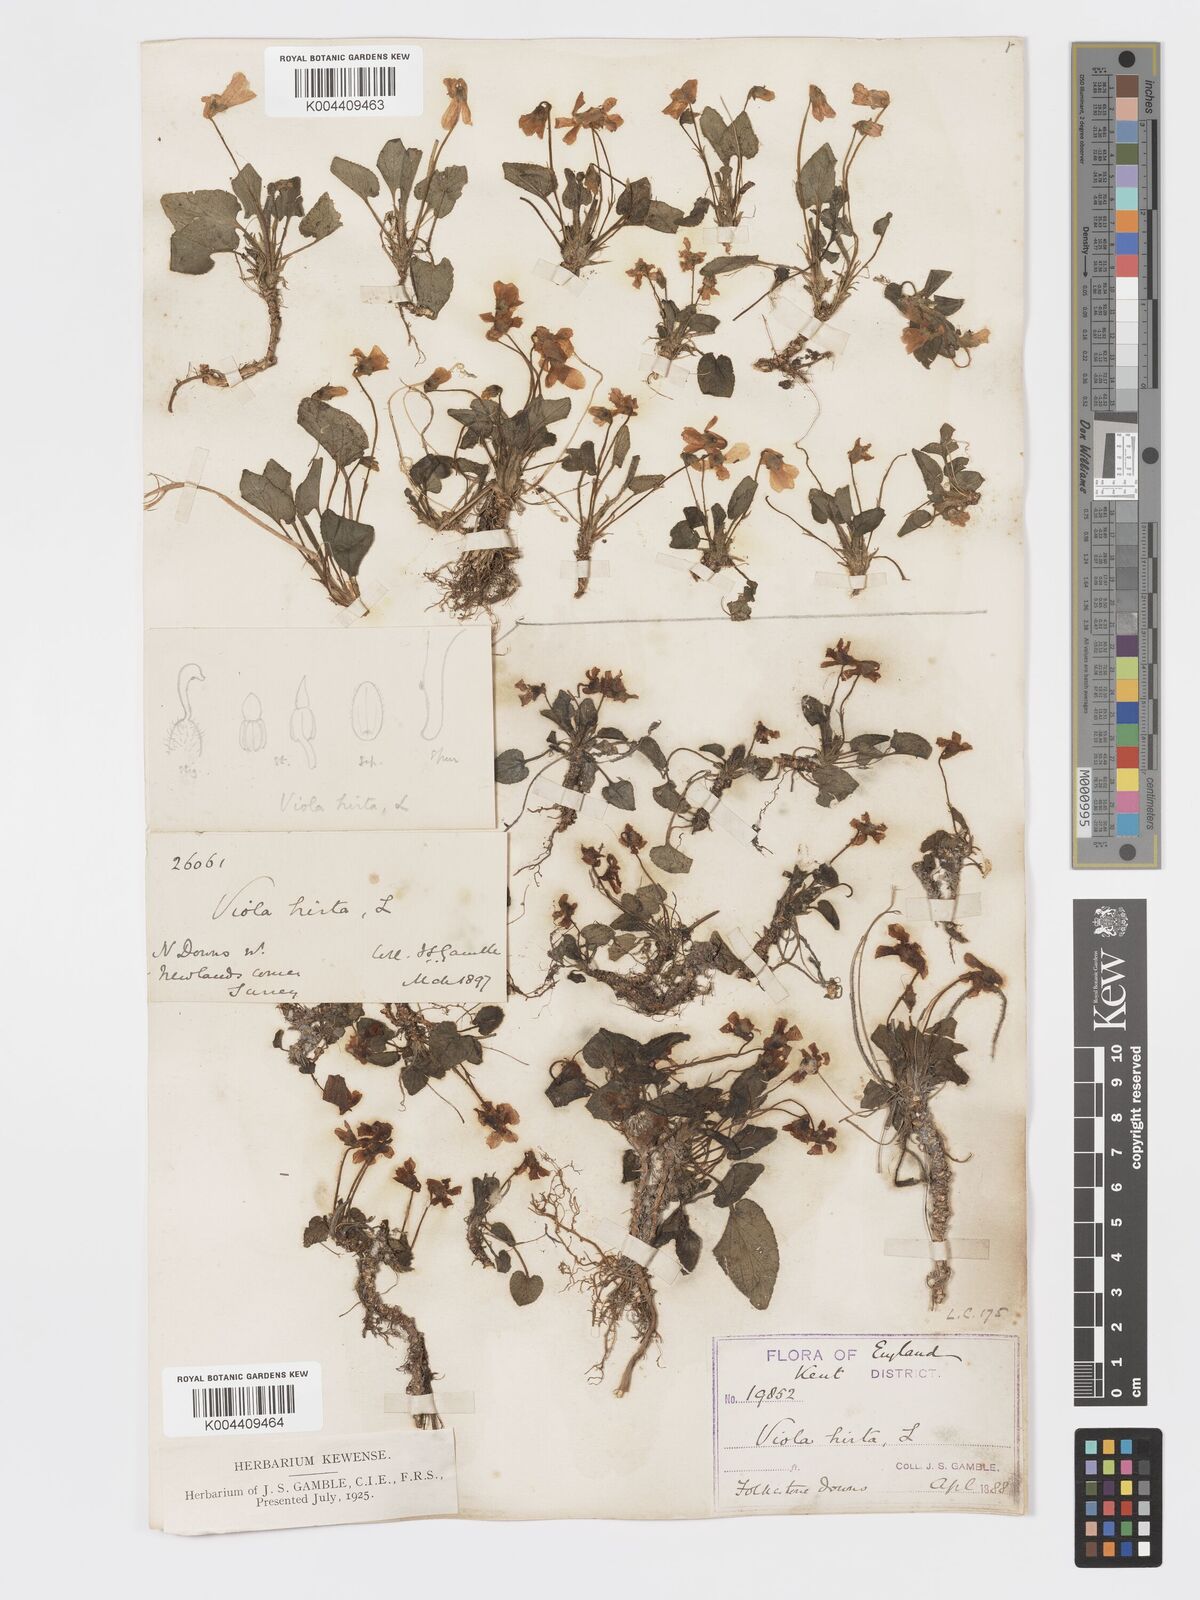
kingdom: Plantae
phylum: Tracheophyta
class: Magnoliopsida
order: Malpighiales
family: Violaceae
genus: Viola
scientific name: Viola
